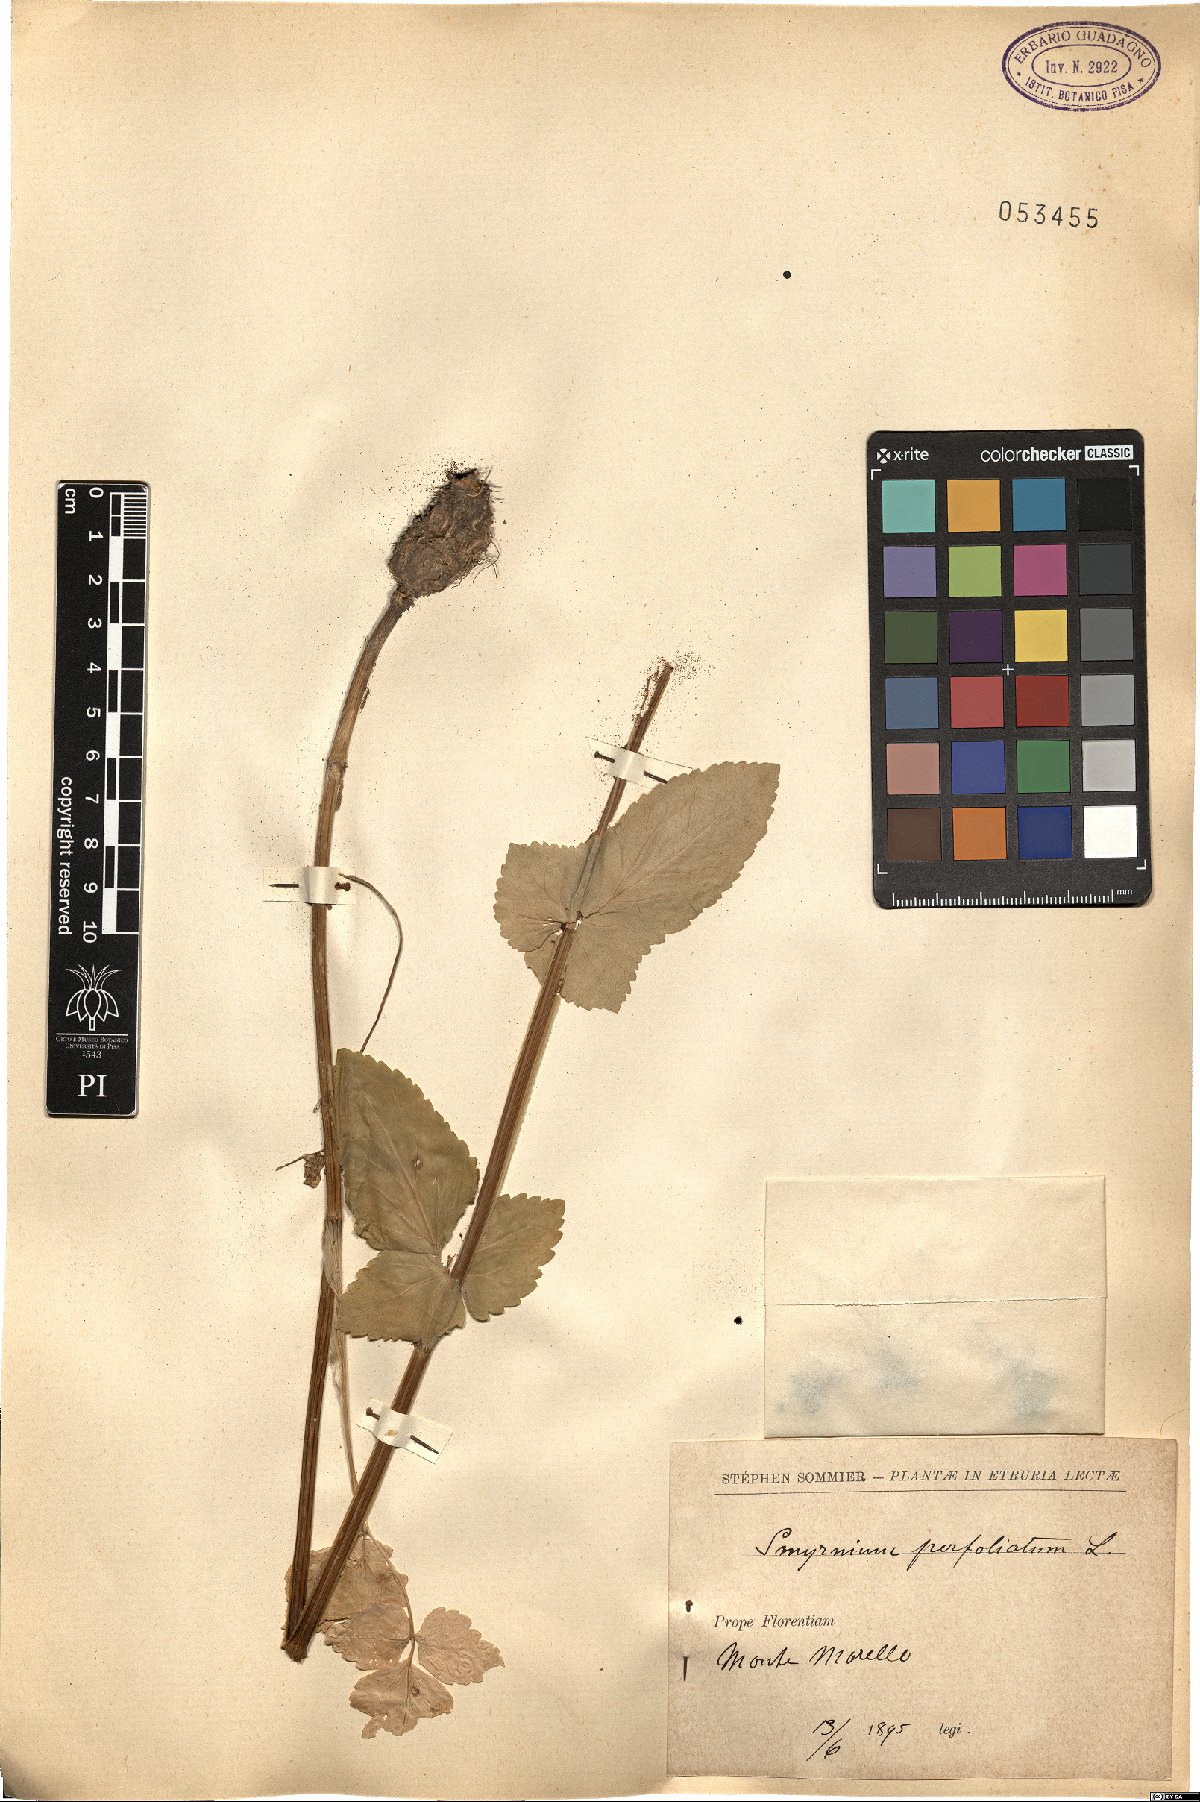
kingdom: Plantae
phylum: Tracheophyta
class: Magnoliopsida
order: Apiales
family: Apiaceae
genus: Smyrnium
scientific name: Smyrnium perfoliatum
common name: Perfoliate alexanders
